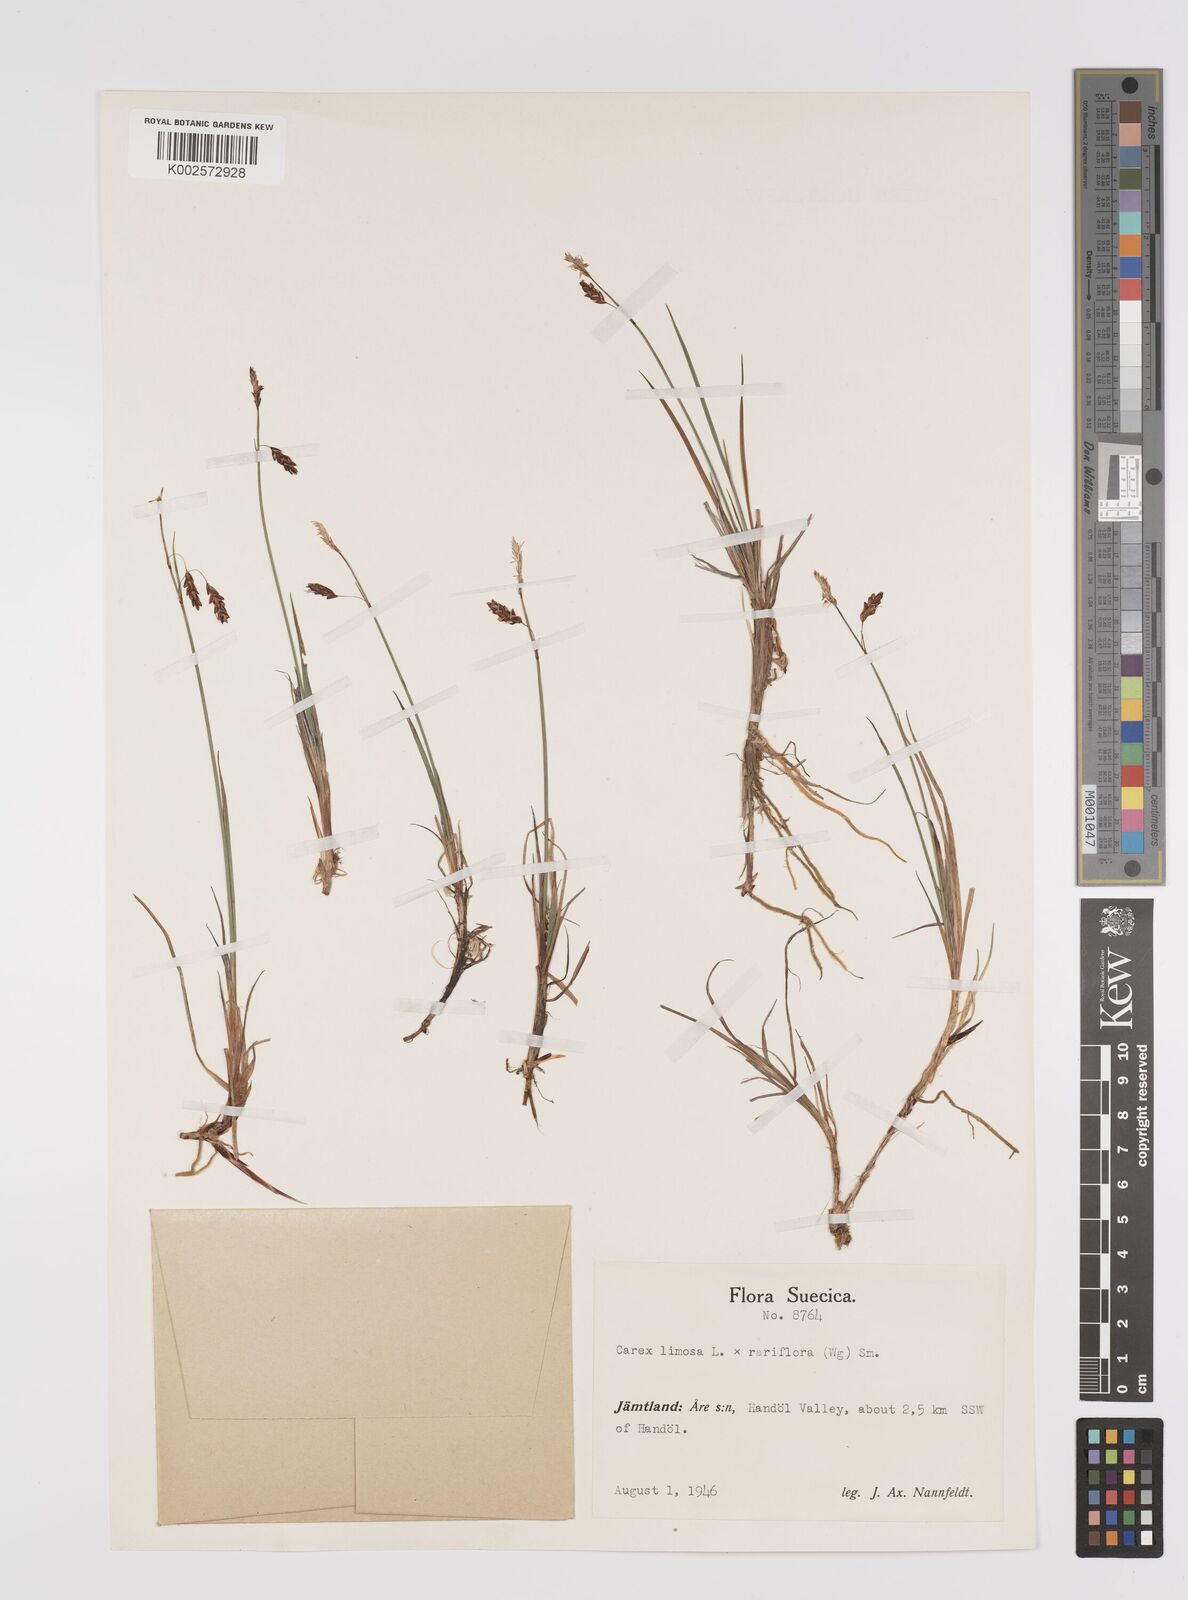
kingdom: Plantae
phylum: Tracheophyta
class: Liliopsida
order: Poales
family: Cyperaceae
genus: Carex
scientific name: Carex rariflora
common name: Loose-flowered alpine sedge
